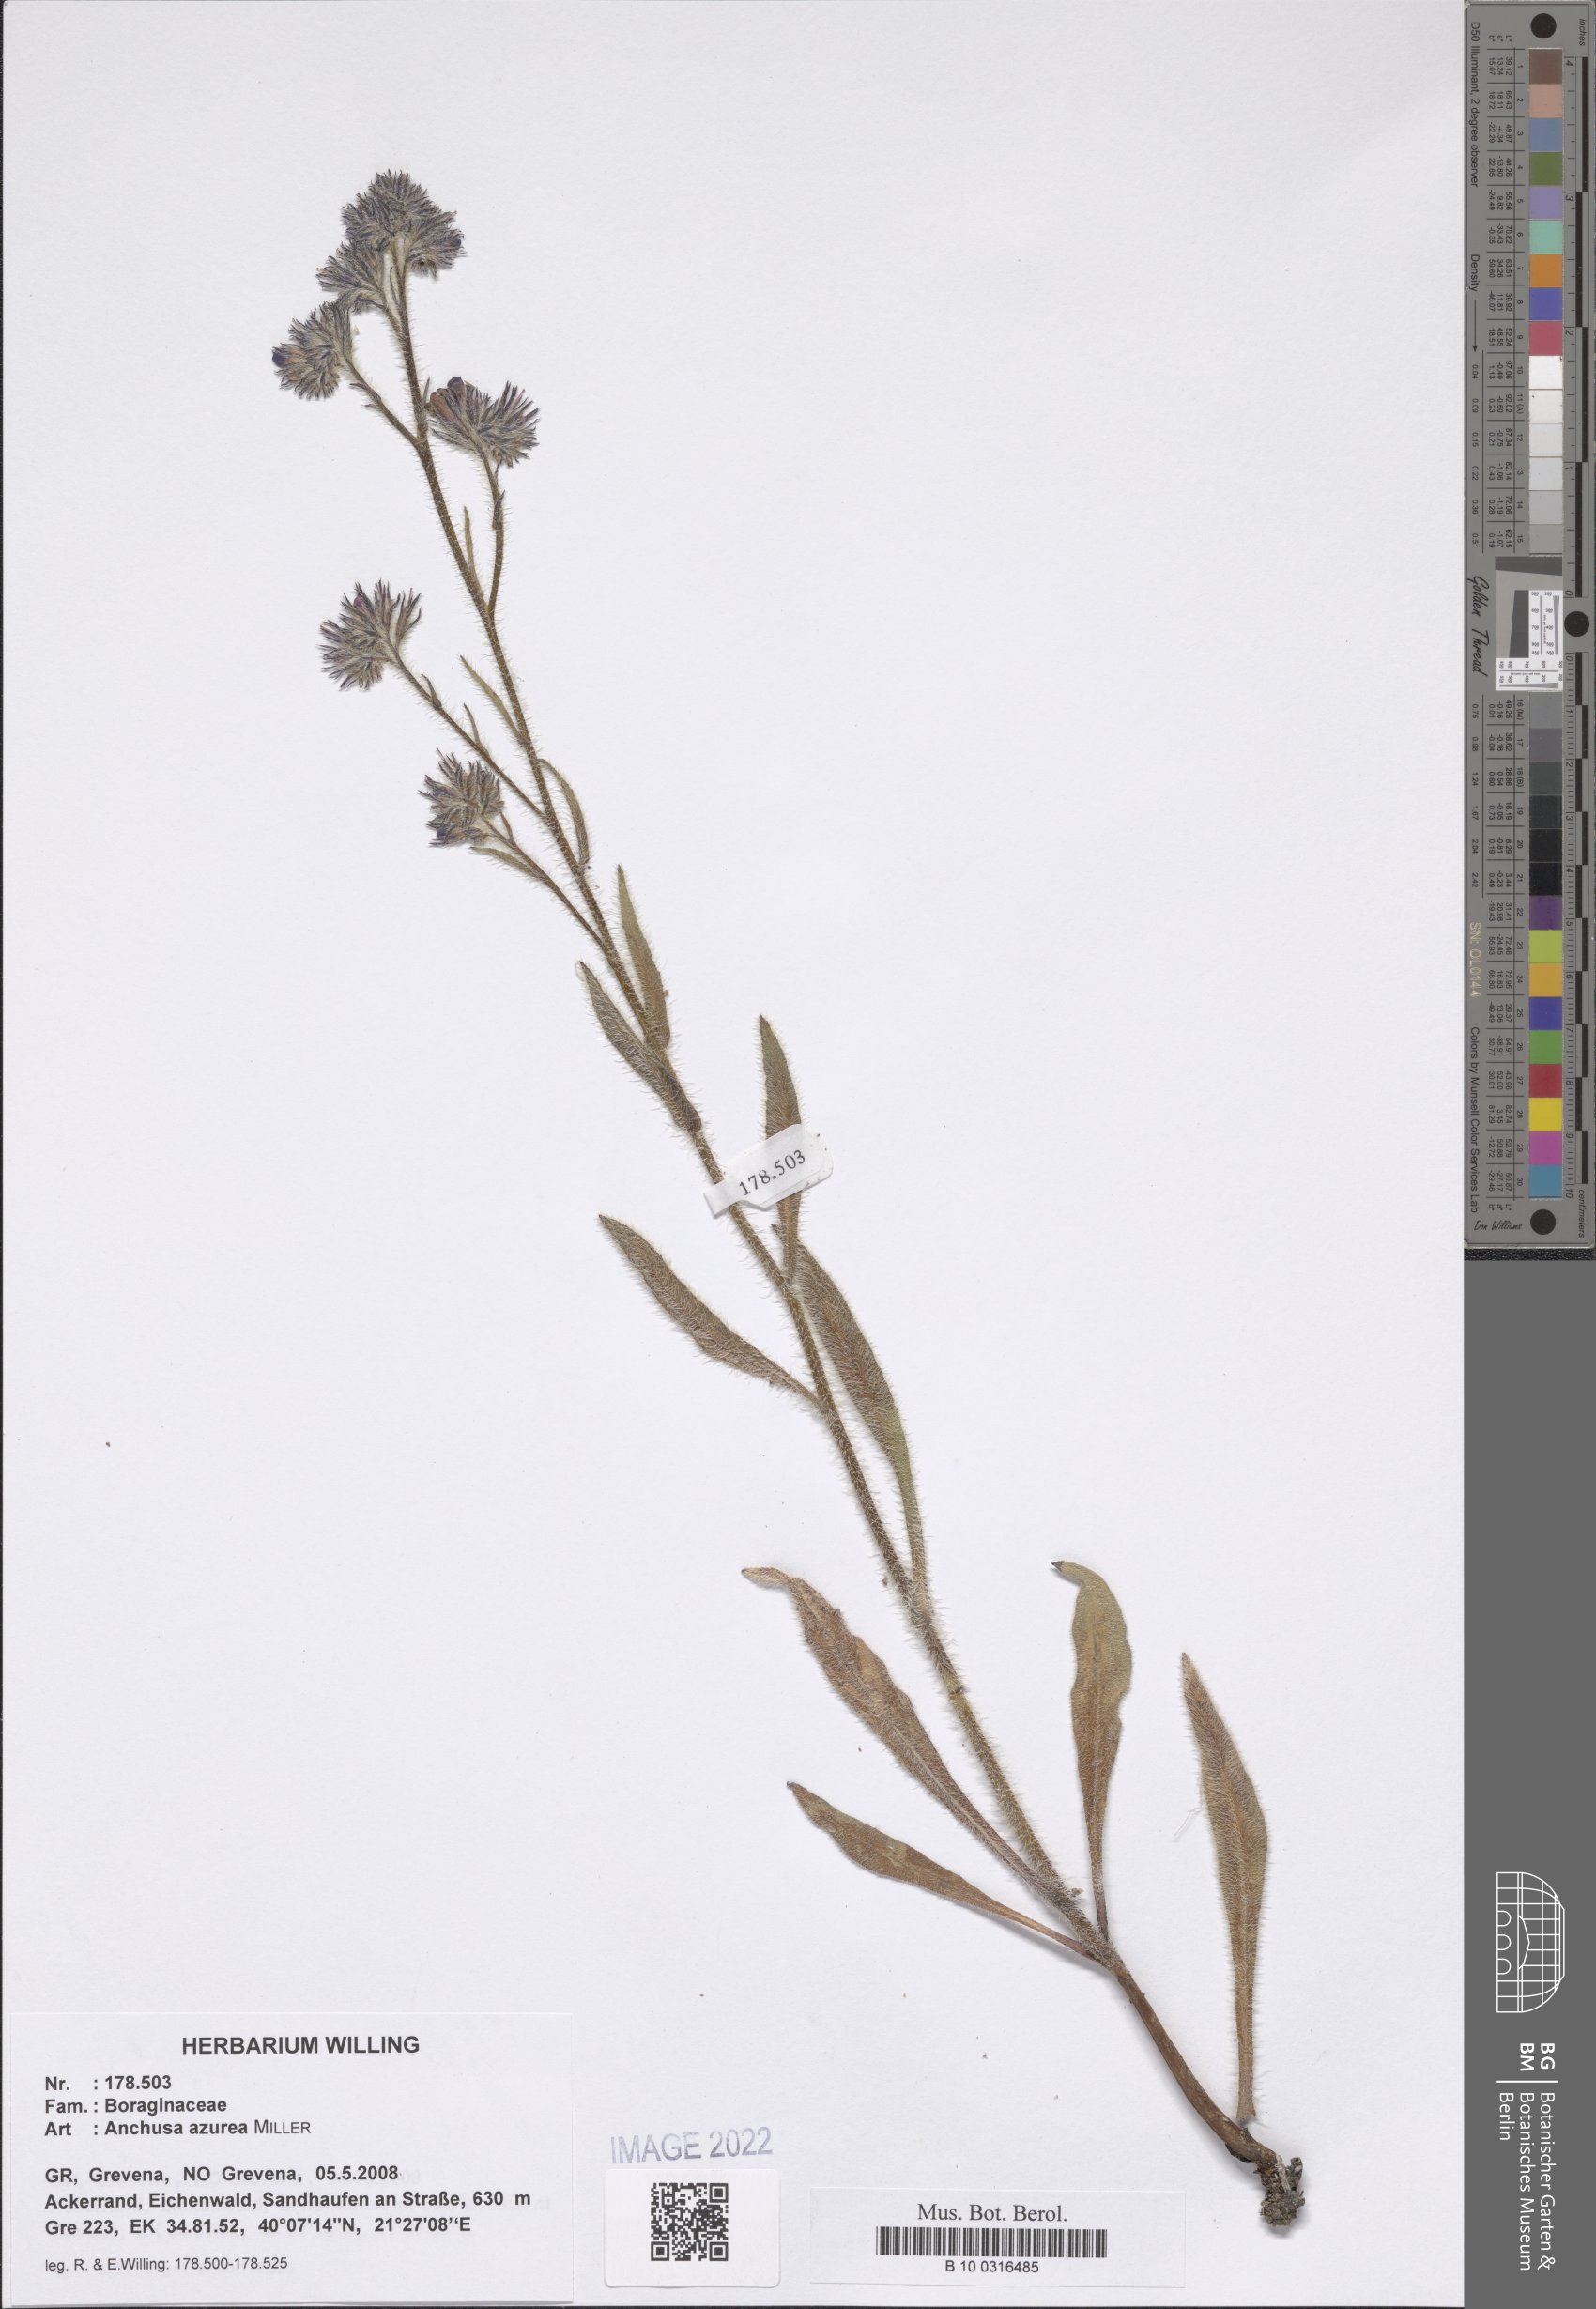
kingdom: Plantae
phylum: Tracheophyta
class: Magnoliopsida
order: Boraginales
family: Boraginaceae
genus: Anchusa
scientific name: Anchusa azurea
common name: Garden anchusa
